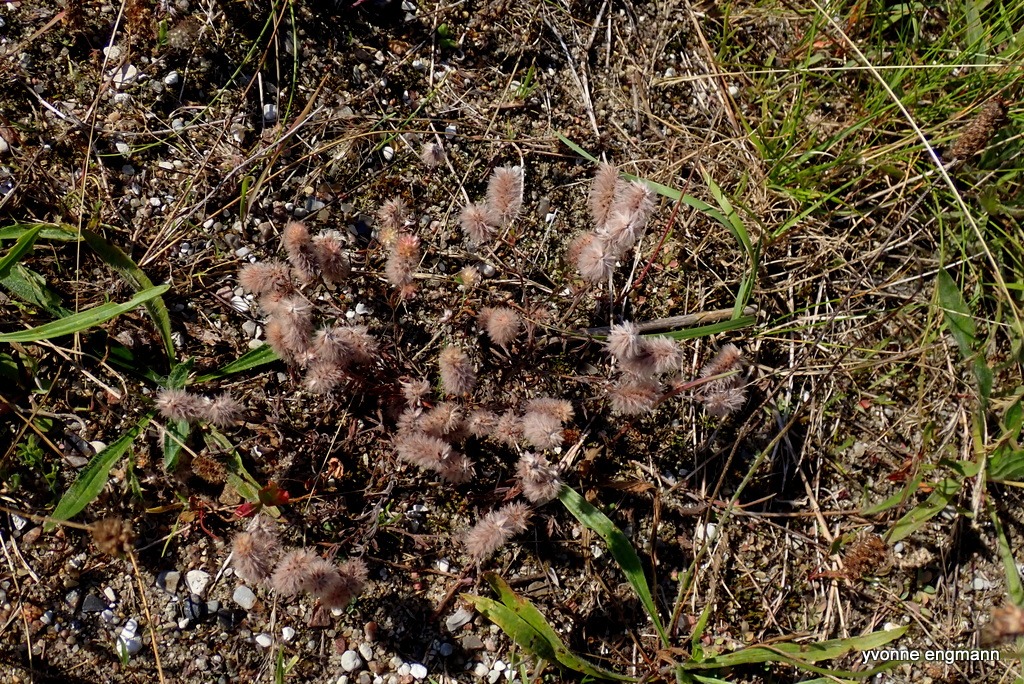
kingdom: Plantae
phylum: Tracheophyta
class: Magnoliopsida
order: Fabales
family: Fabaceae
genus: Trifolium
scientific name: Trifolium arvense
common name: Hare-kløver
